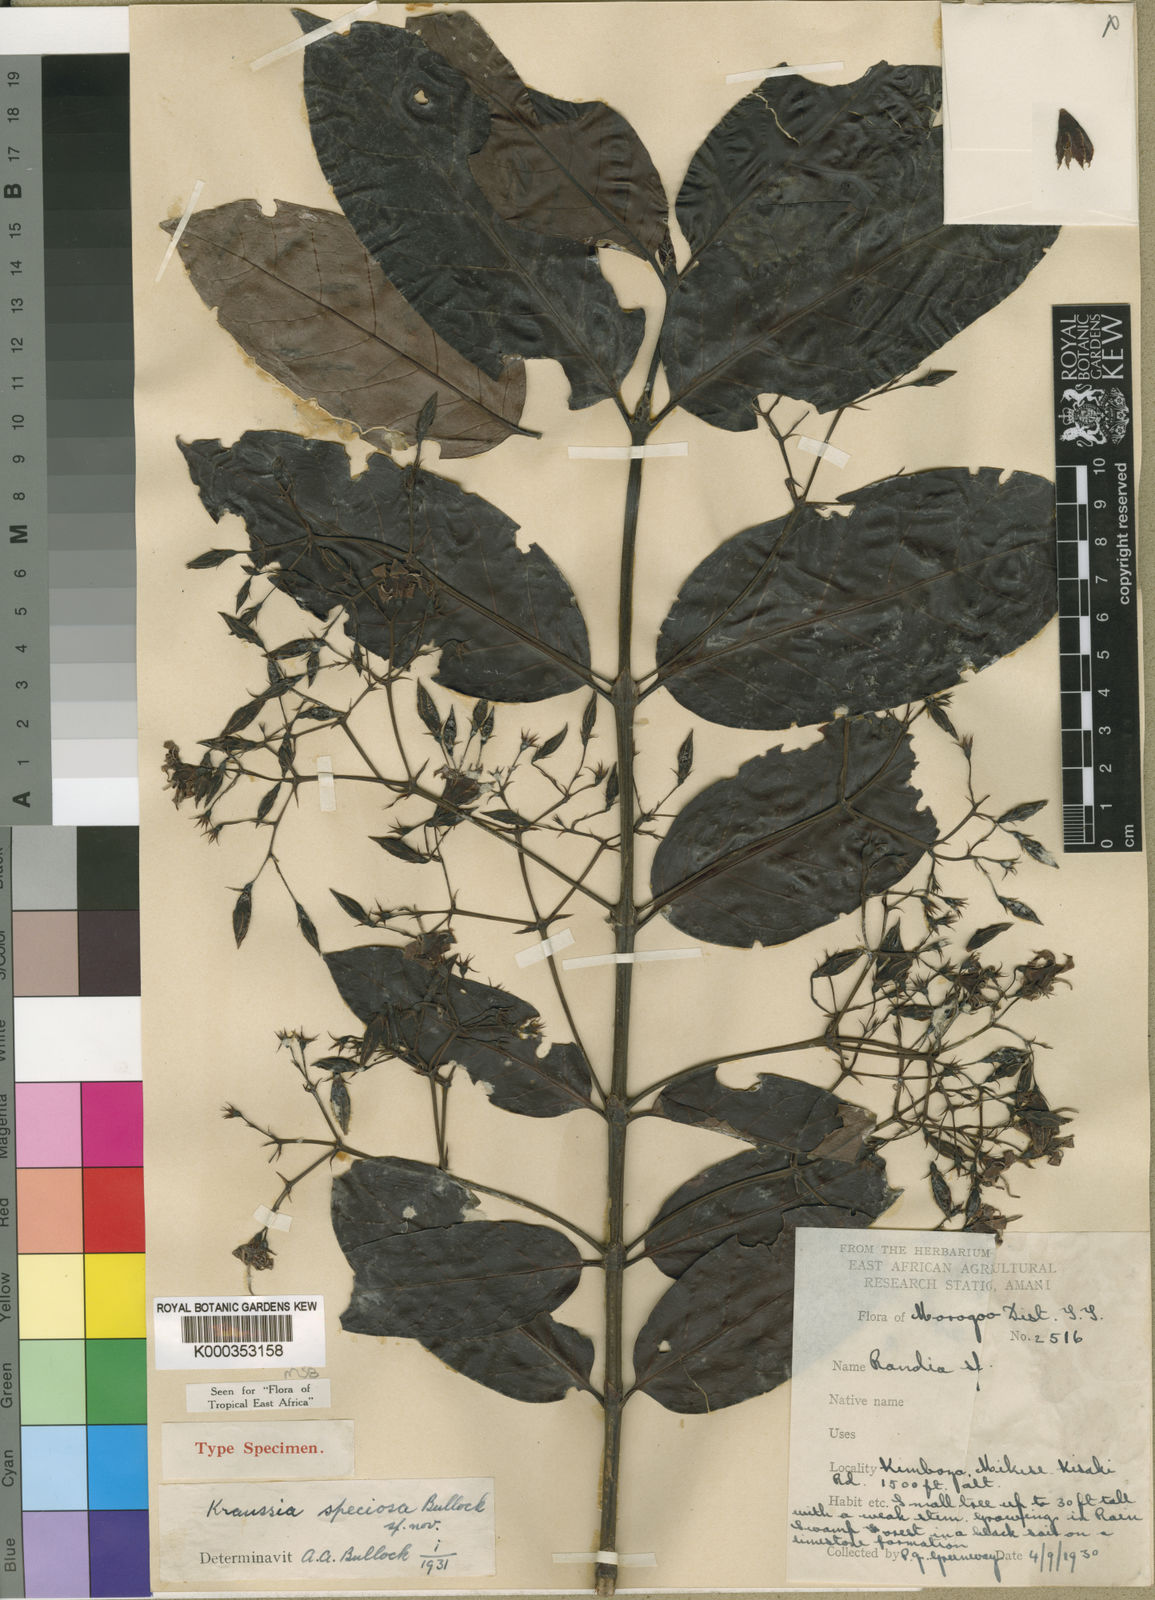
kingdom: Plantae
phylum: Tracheophyta
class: Magnoliopsida
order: Gentianales
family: Rubiaceae
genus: Kraussia
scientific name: Kraussia speciosa
